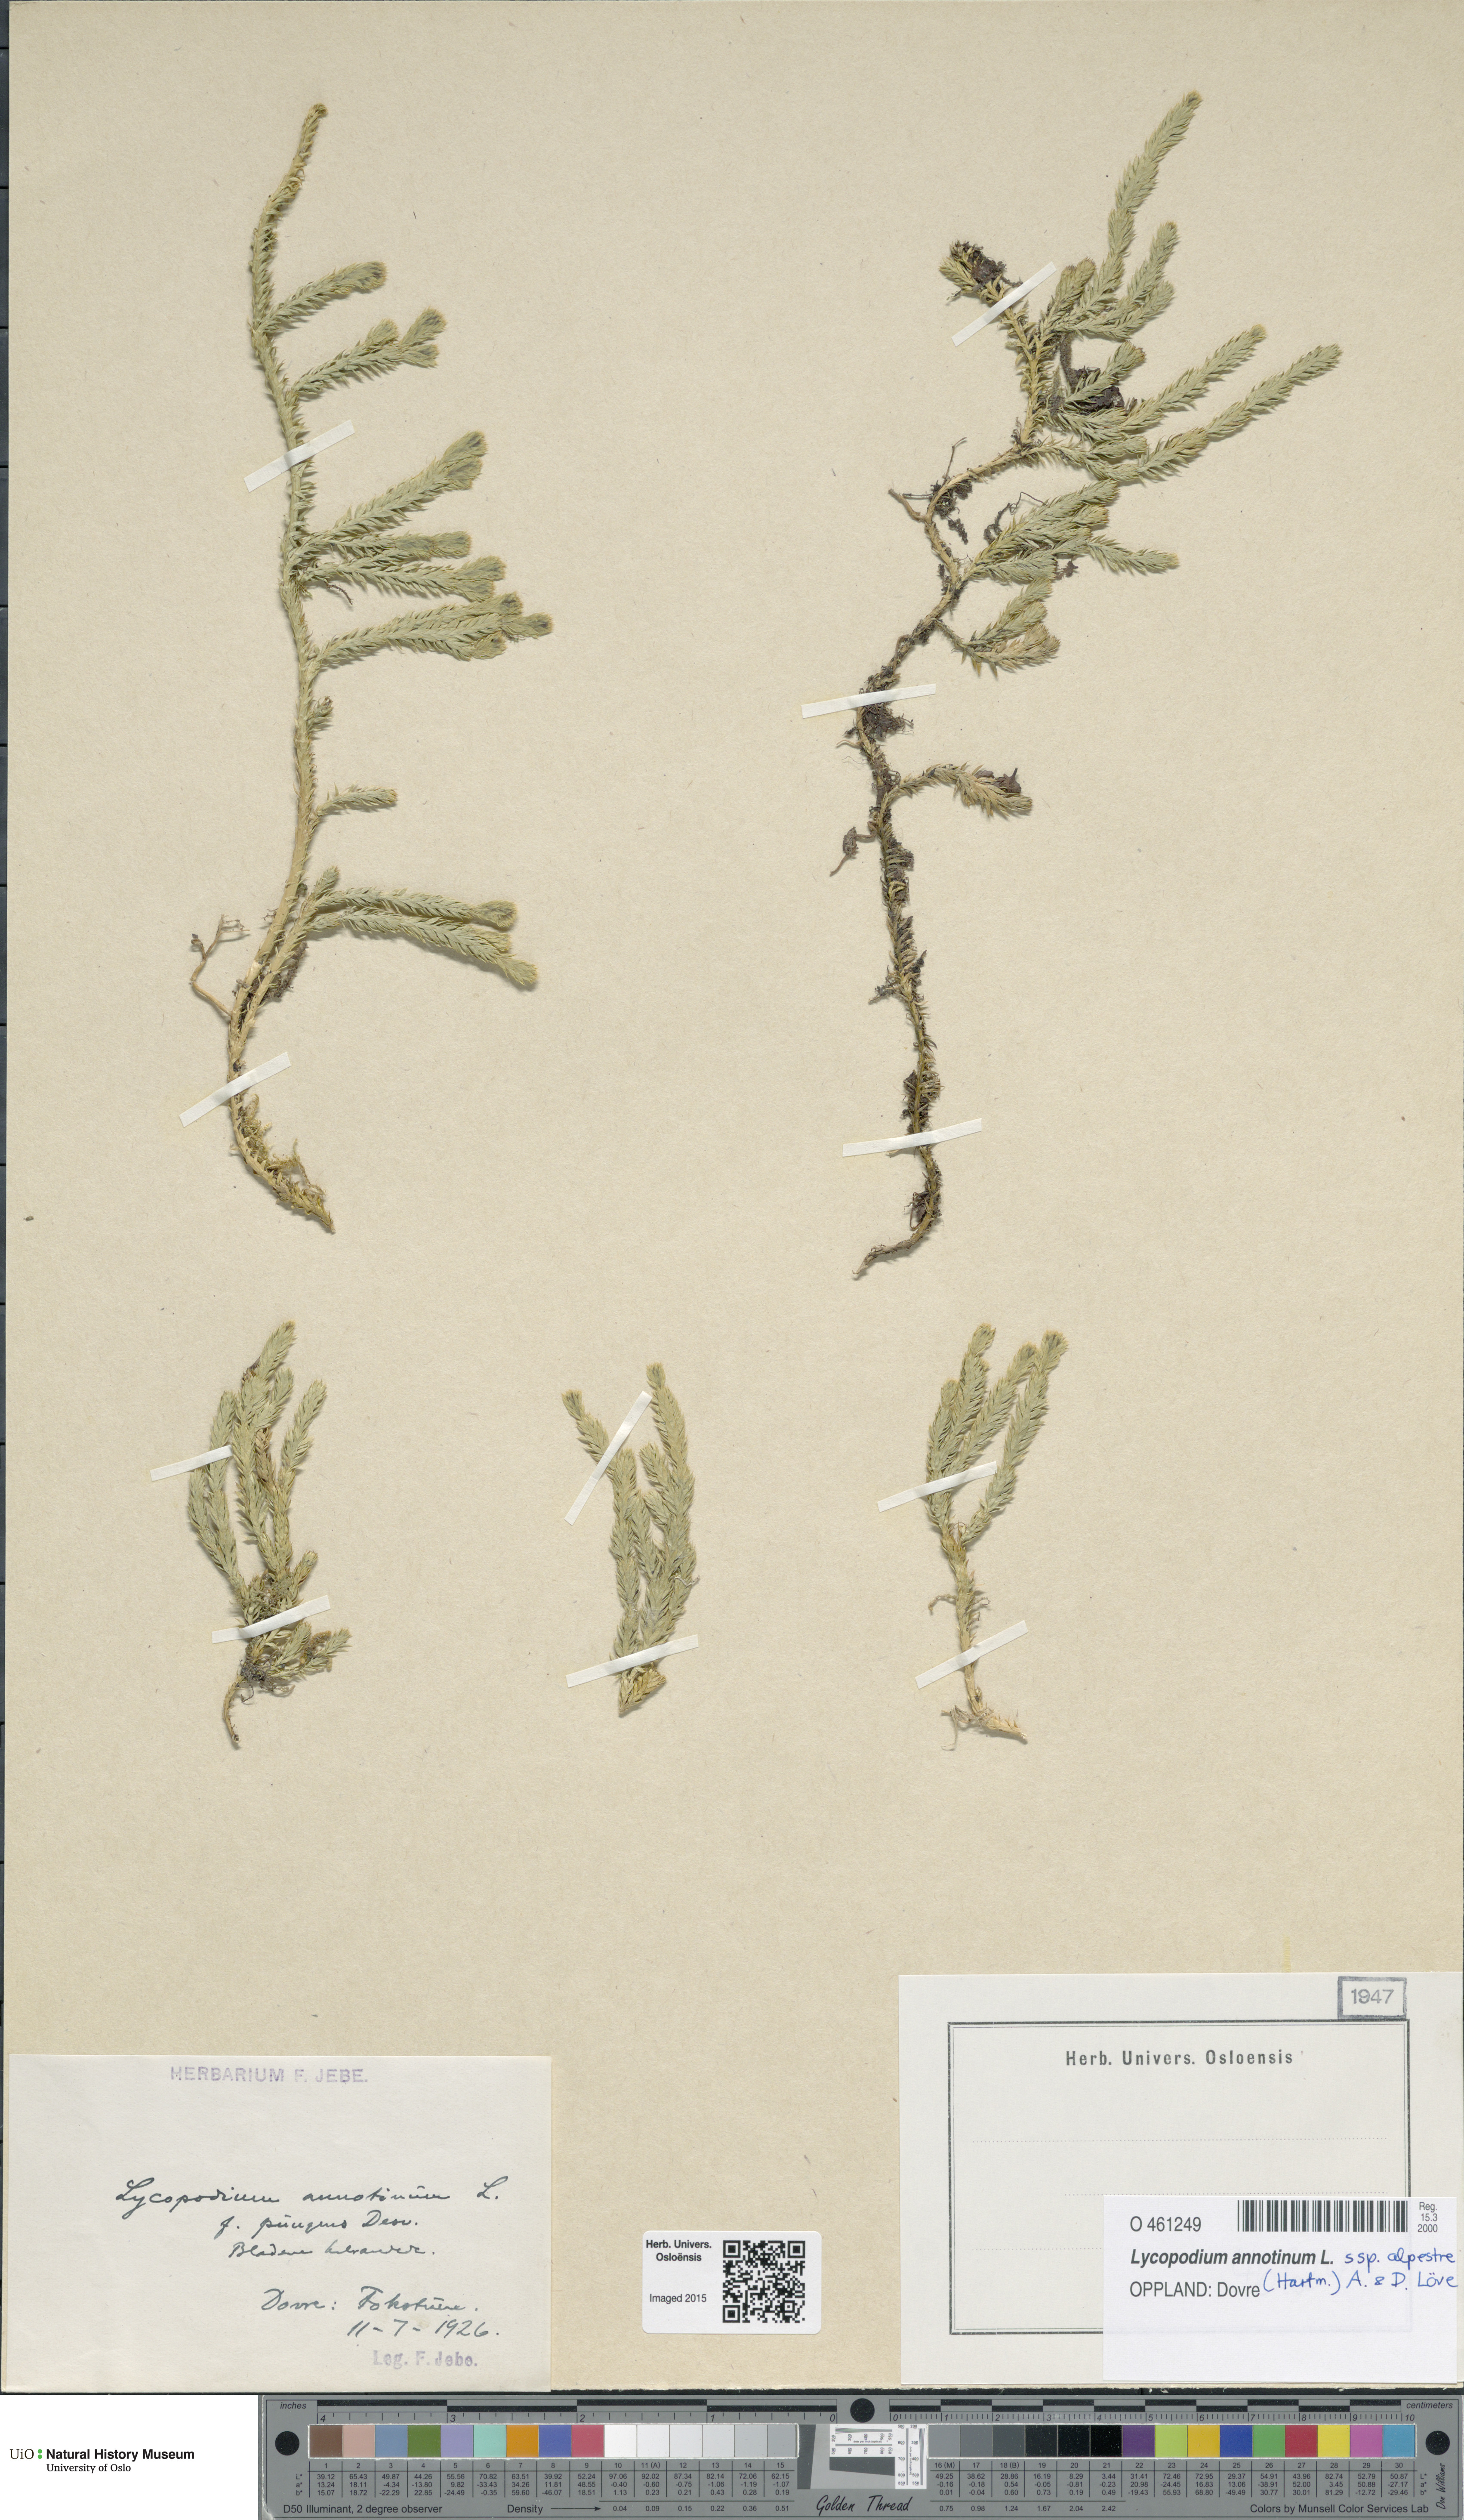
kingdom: Plantae
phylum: Tracheophyta
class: Lycopodiopsida
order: Lycopodiales
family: Lycopodiaceae
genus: Spinulum
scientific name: Spinulum annotinum
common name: Interrupted club-moss
